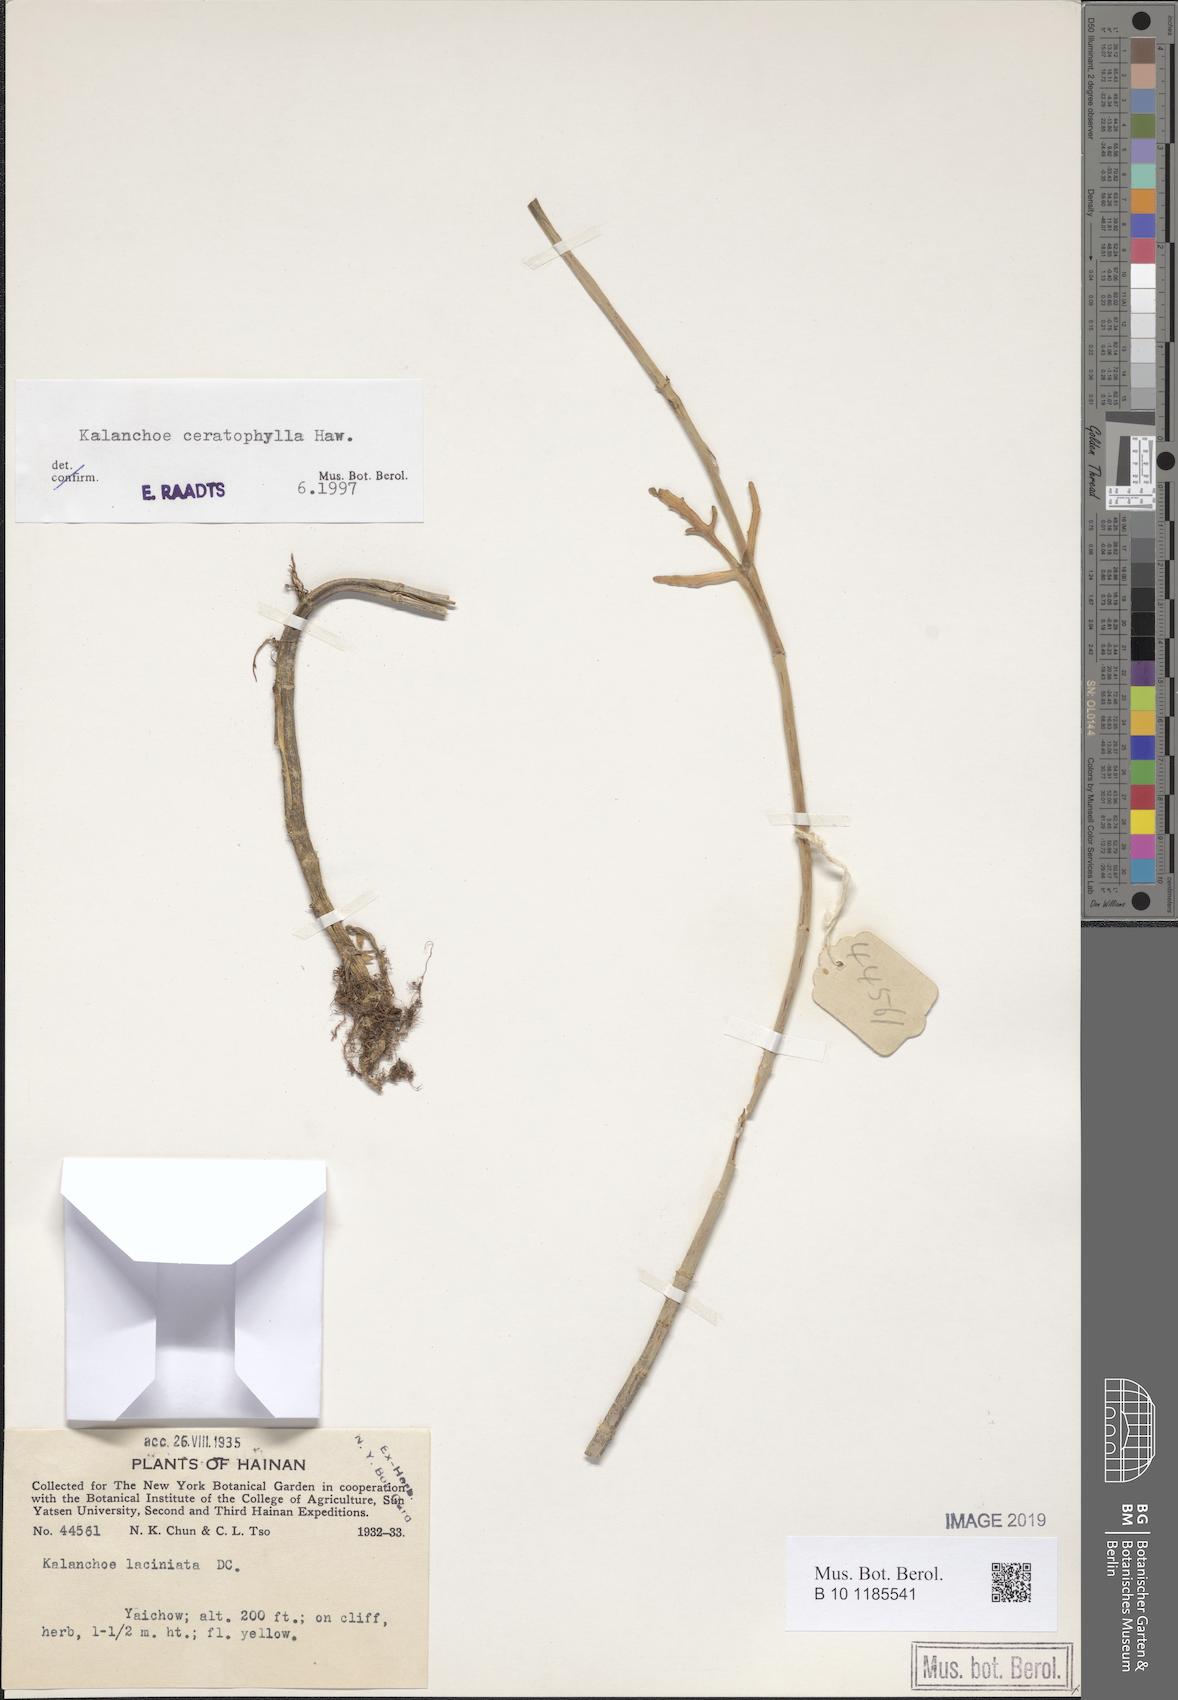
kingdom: Plantae
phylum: Tracheophyta
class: Magnoliopsida
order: Saxifragales
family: Crassulaceae
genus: Kalanchoe
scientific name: Kalanchoe ceratophylla
